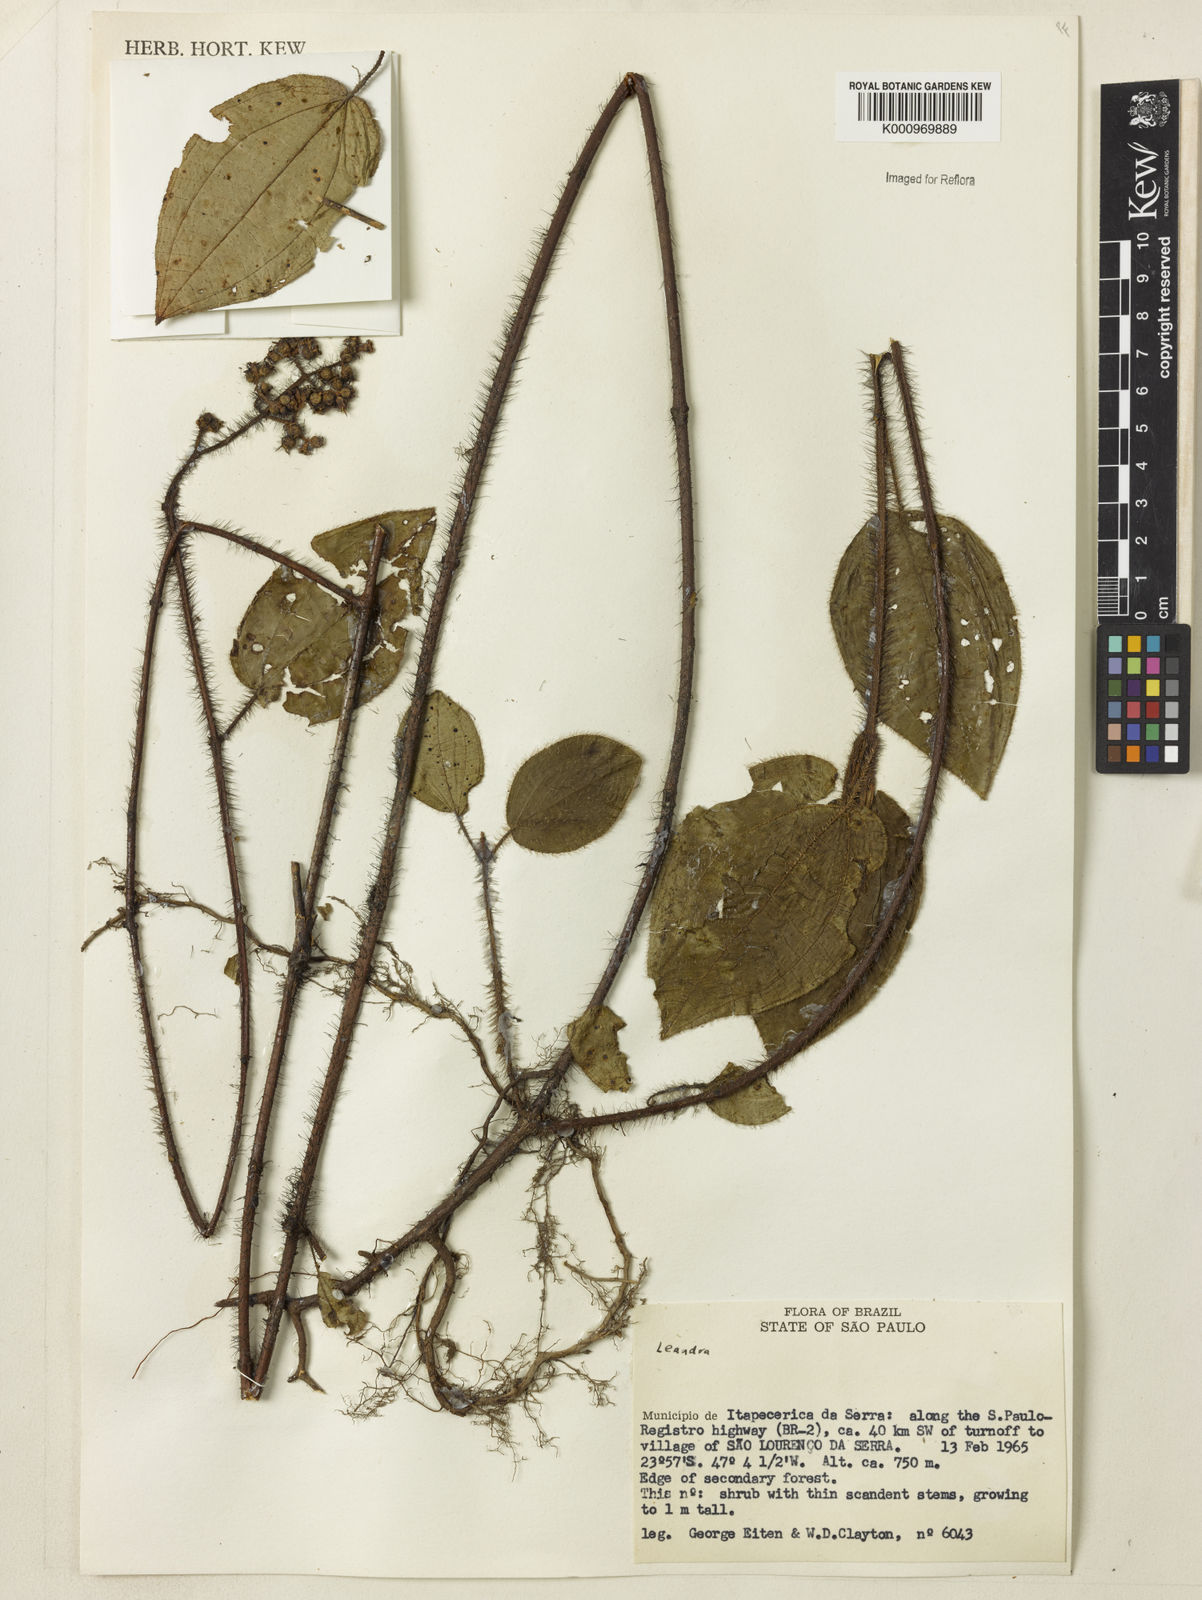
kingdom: Plantae
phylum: Tracheophyta
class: Magnoliopsida
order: Myrtales
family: Melastomataceae
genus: Miconia
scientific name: Miconia
